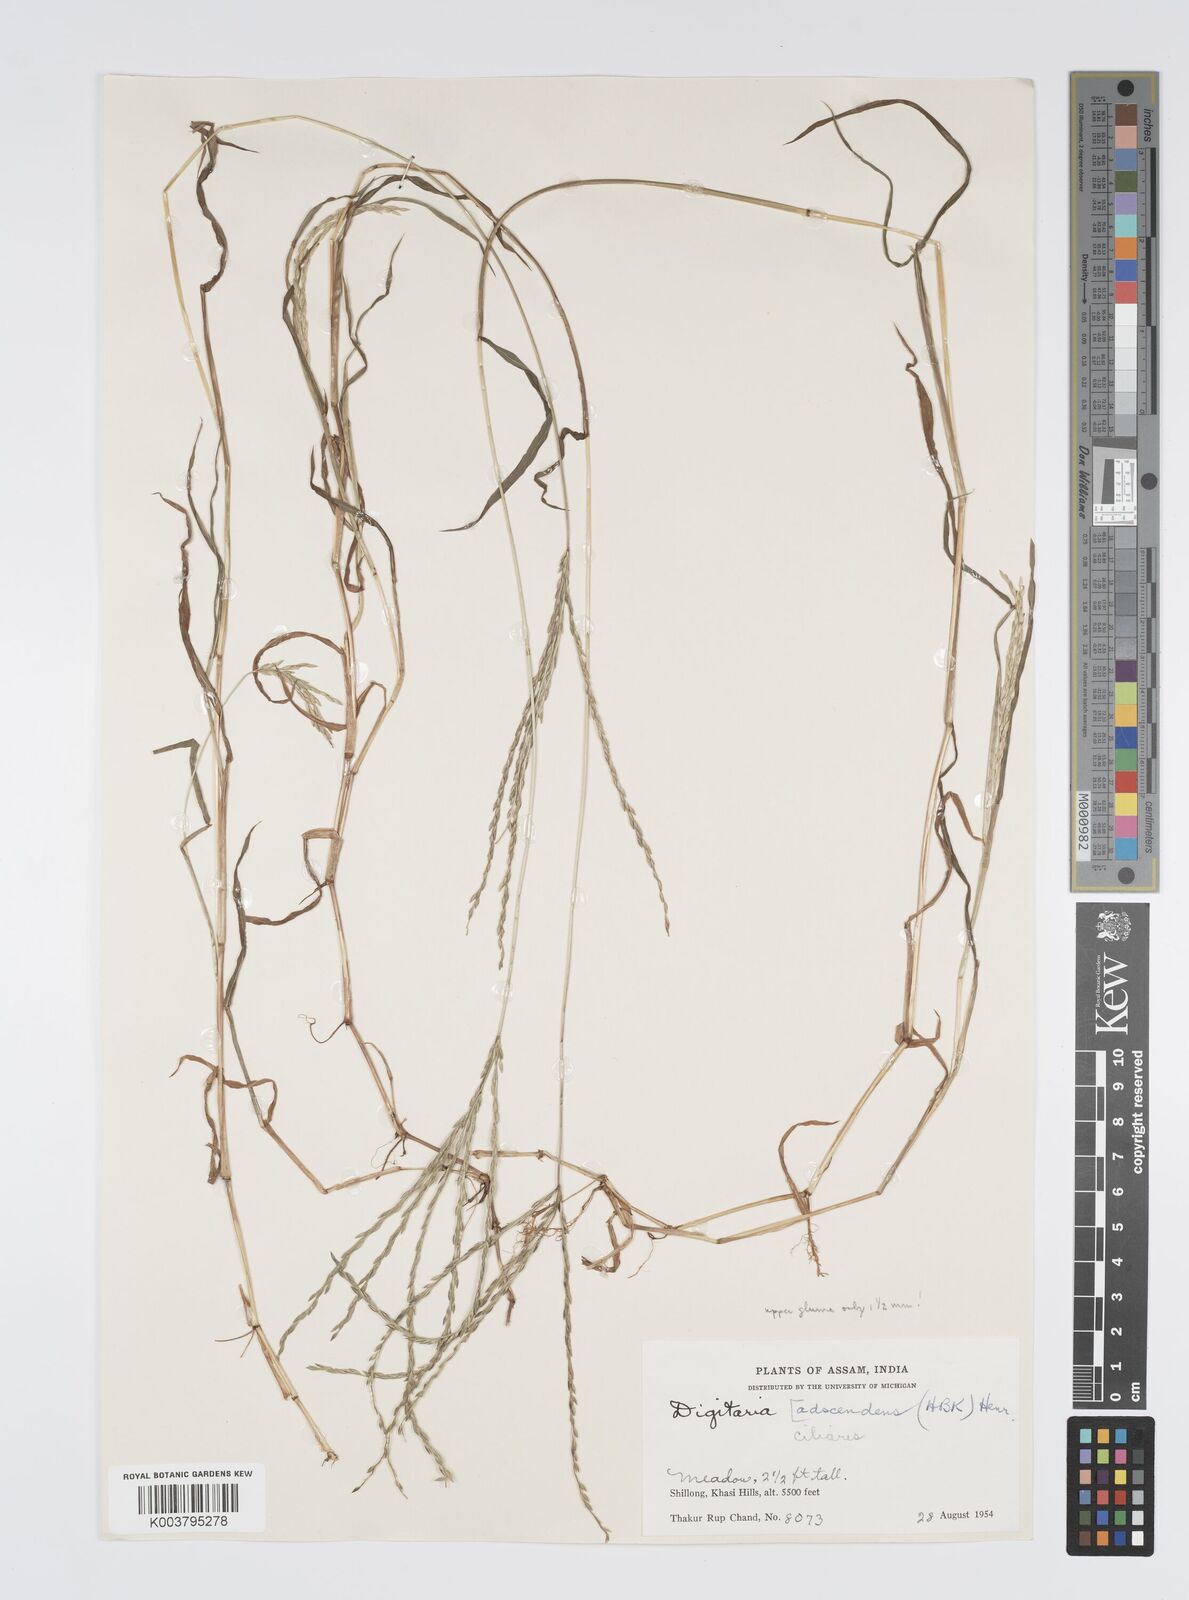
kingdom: Plantae
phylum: Tracheophyta
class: Liliopsida
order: Poales
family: Poaceae
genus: Digitaria
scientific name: Digitaria ciliaris
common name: Tropical finger-grass
